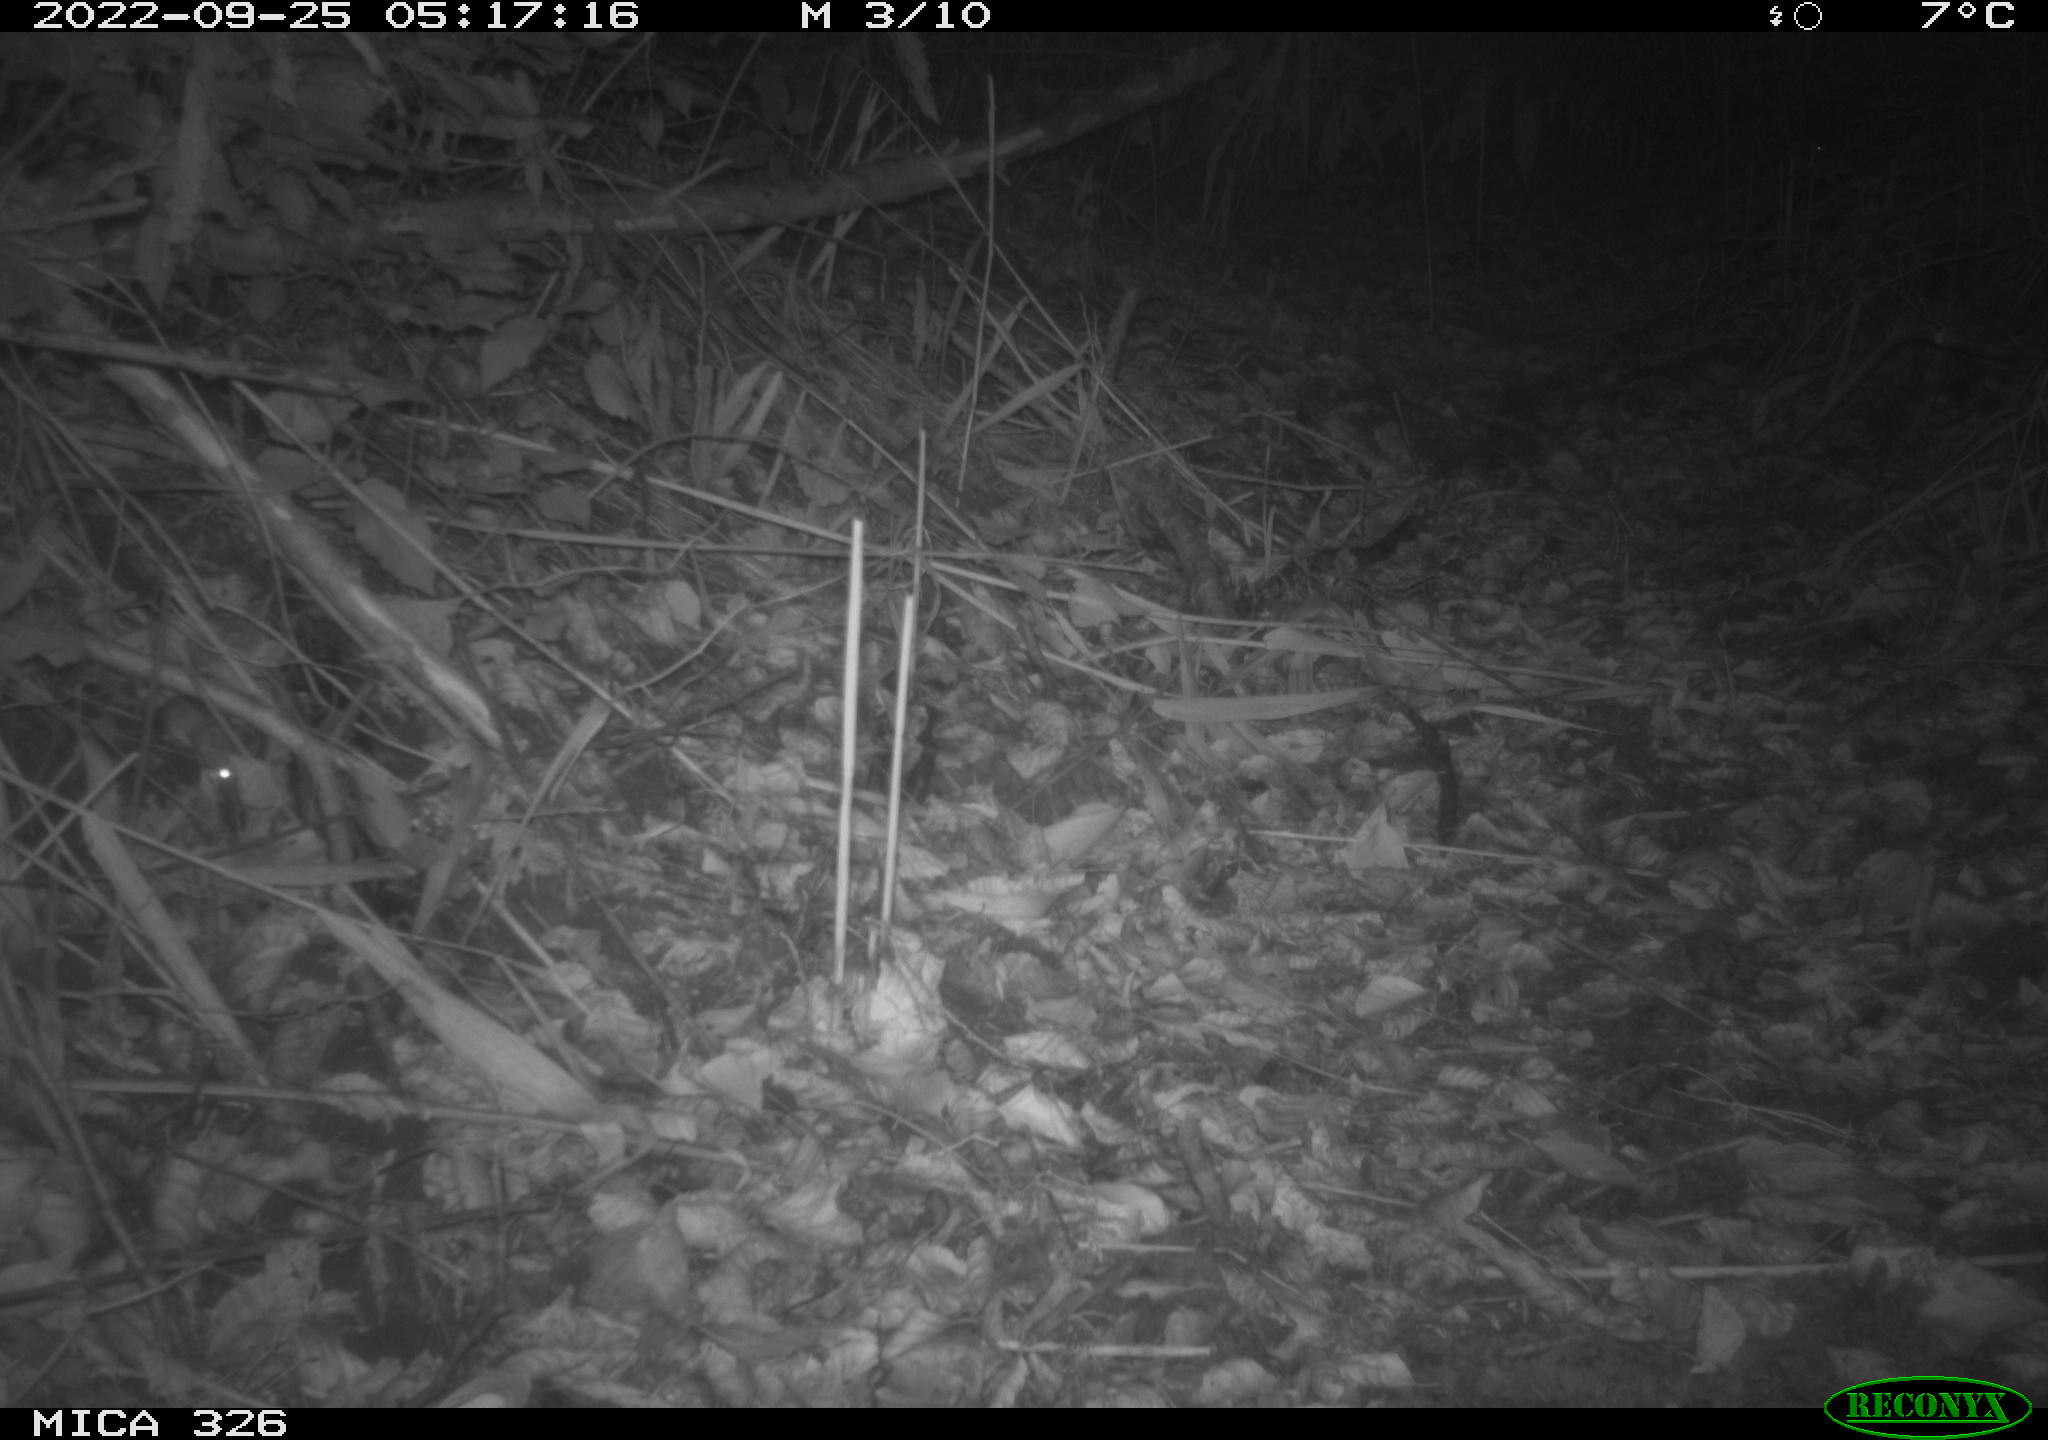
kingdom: Animalia
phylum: Chordata
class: Mammalia
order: Rodentia
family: Muridae
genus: Apodemus
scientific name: Apodemus sylvaticus
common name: Wood mouse
